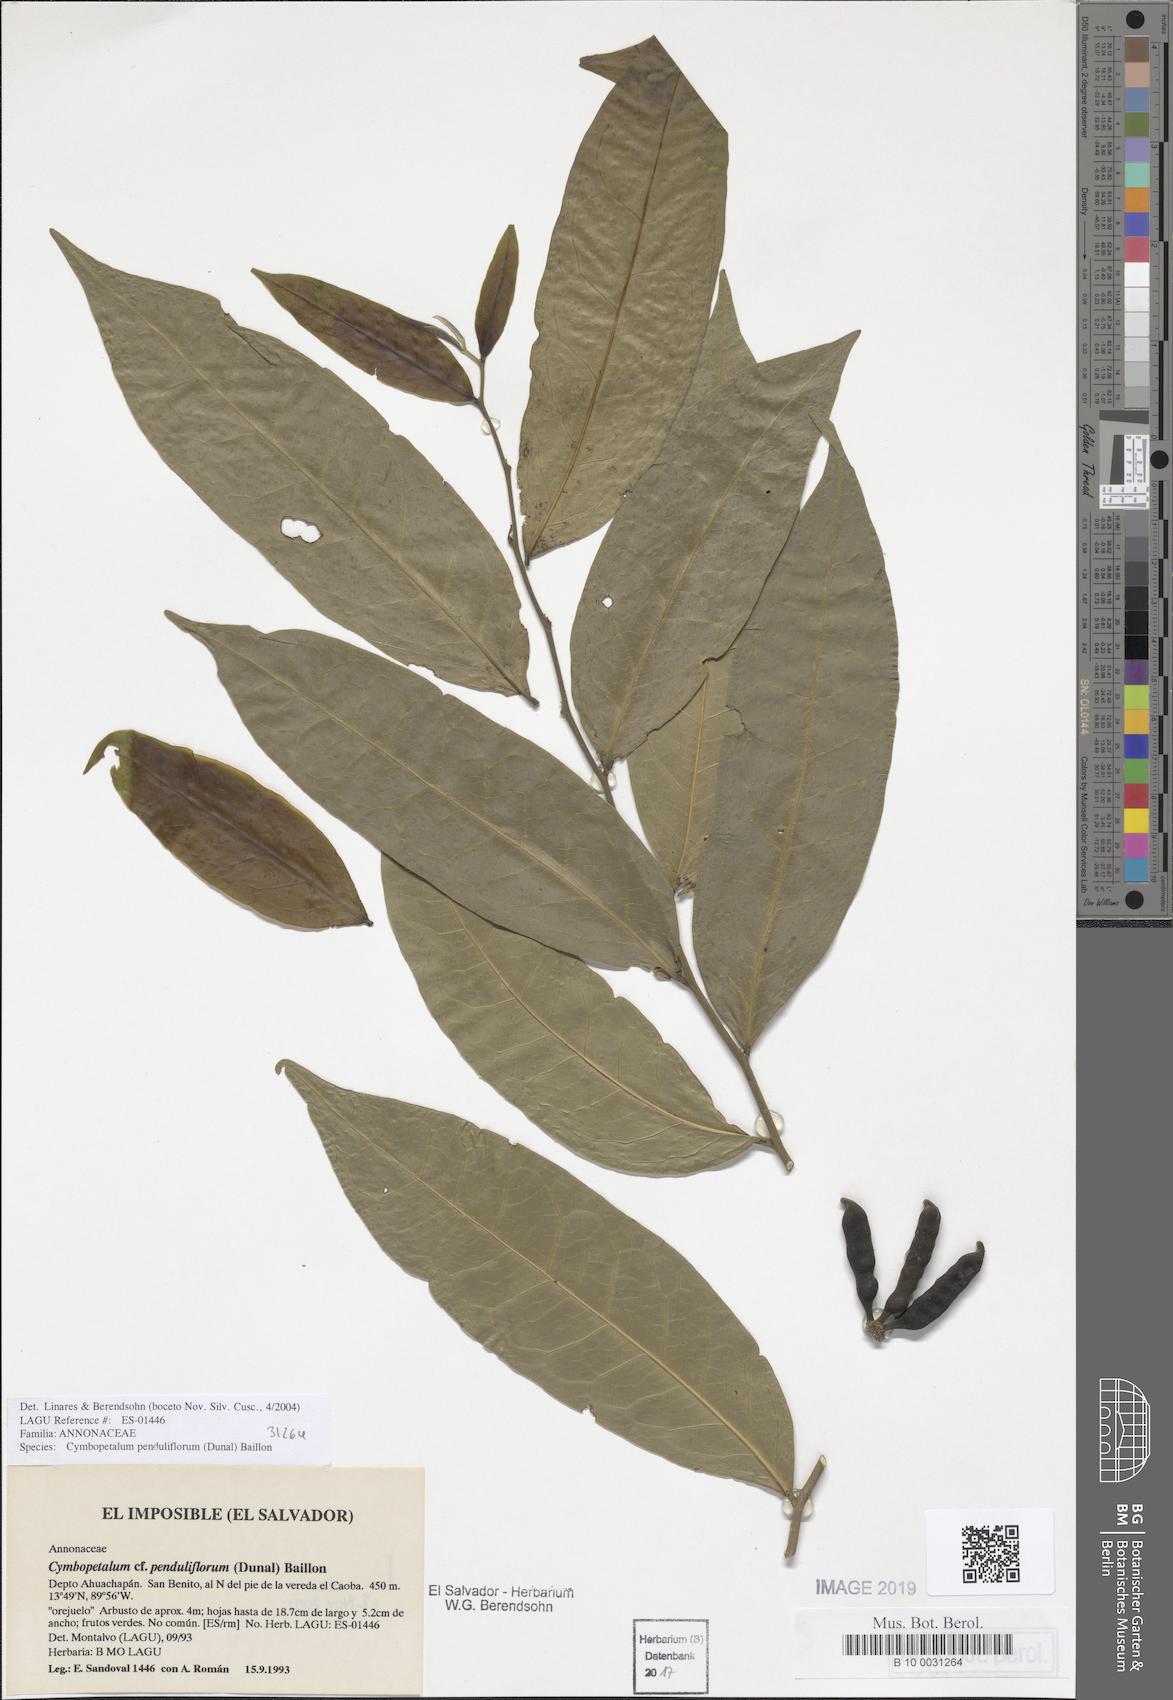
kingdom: Plantae
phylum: Tracheophyta
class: Magnoliopsida
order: Magnoliales
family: Annonaceae
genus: Cymbopetalum
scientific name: Cymbopetalum penduliflorum
